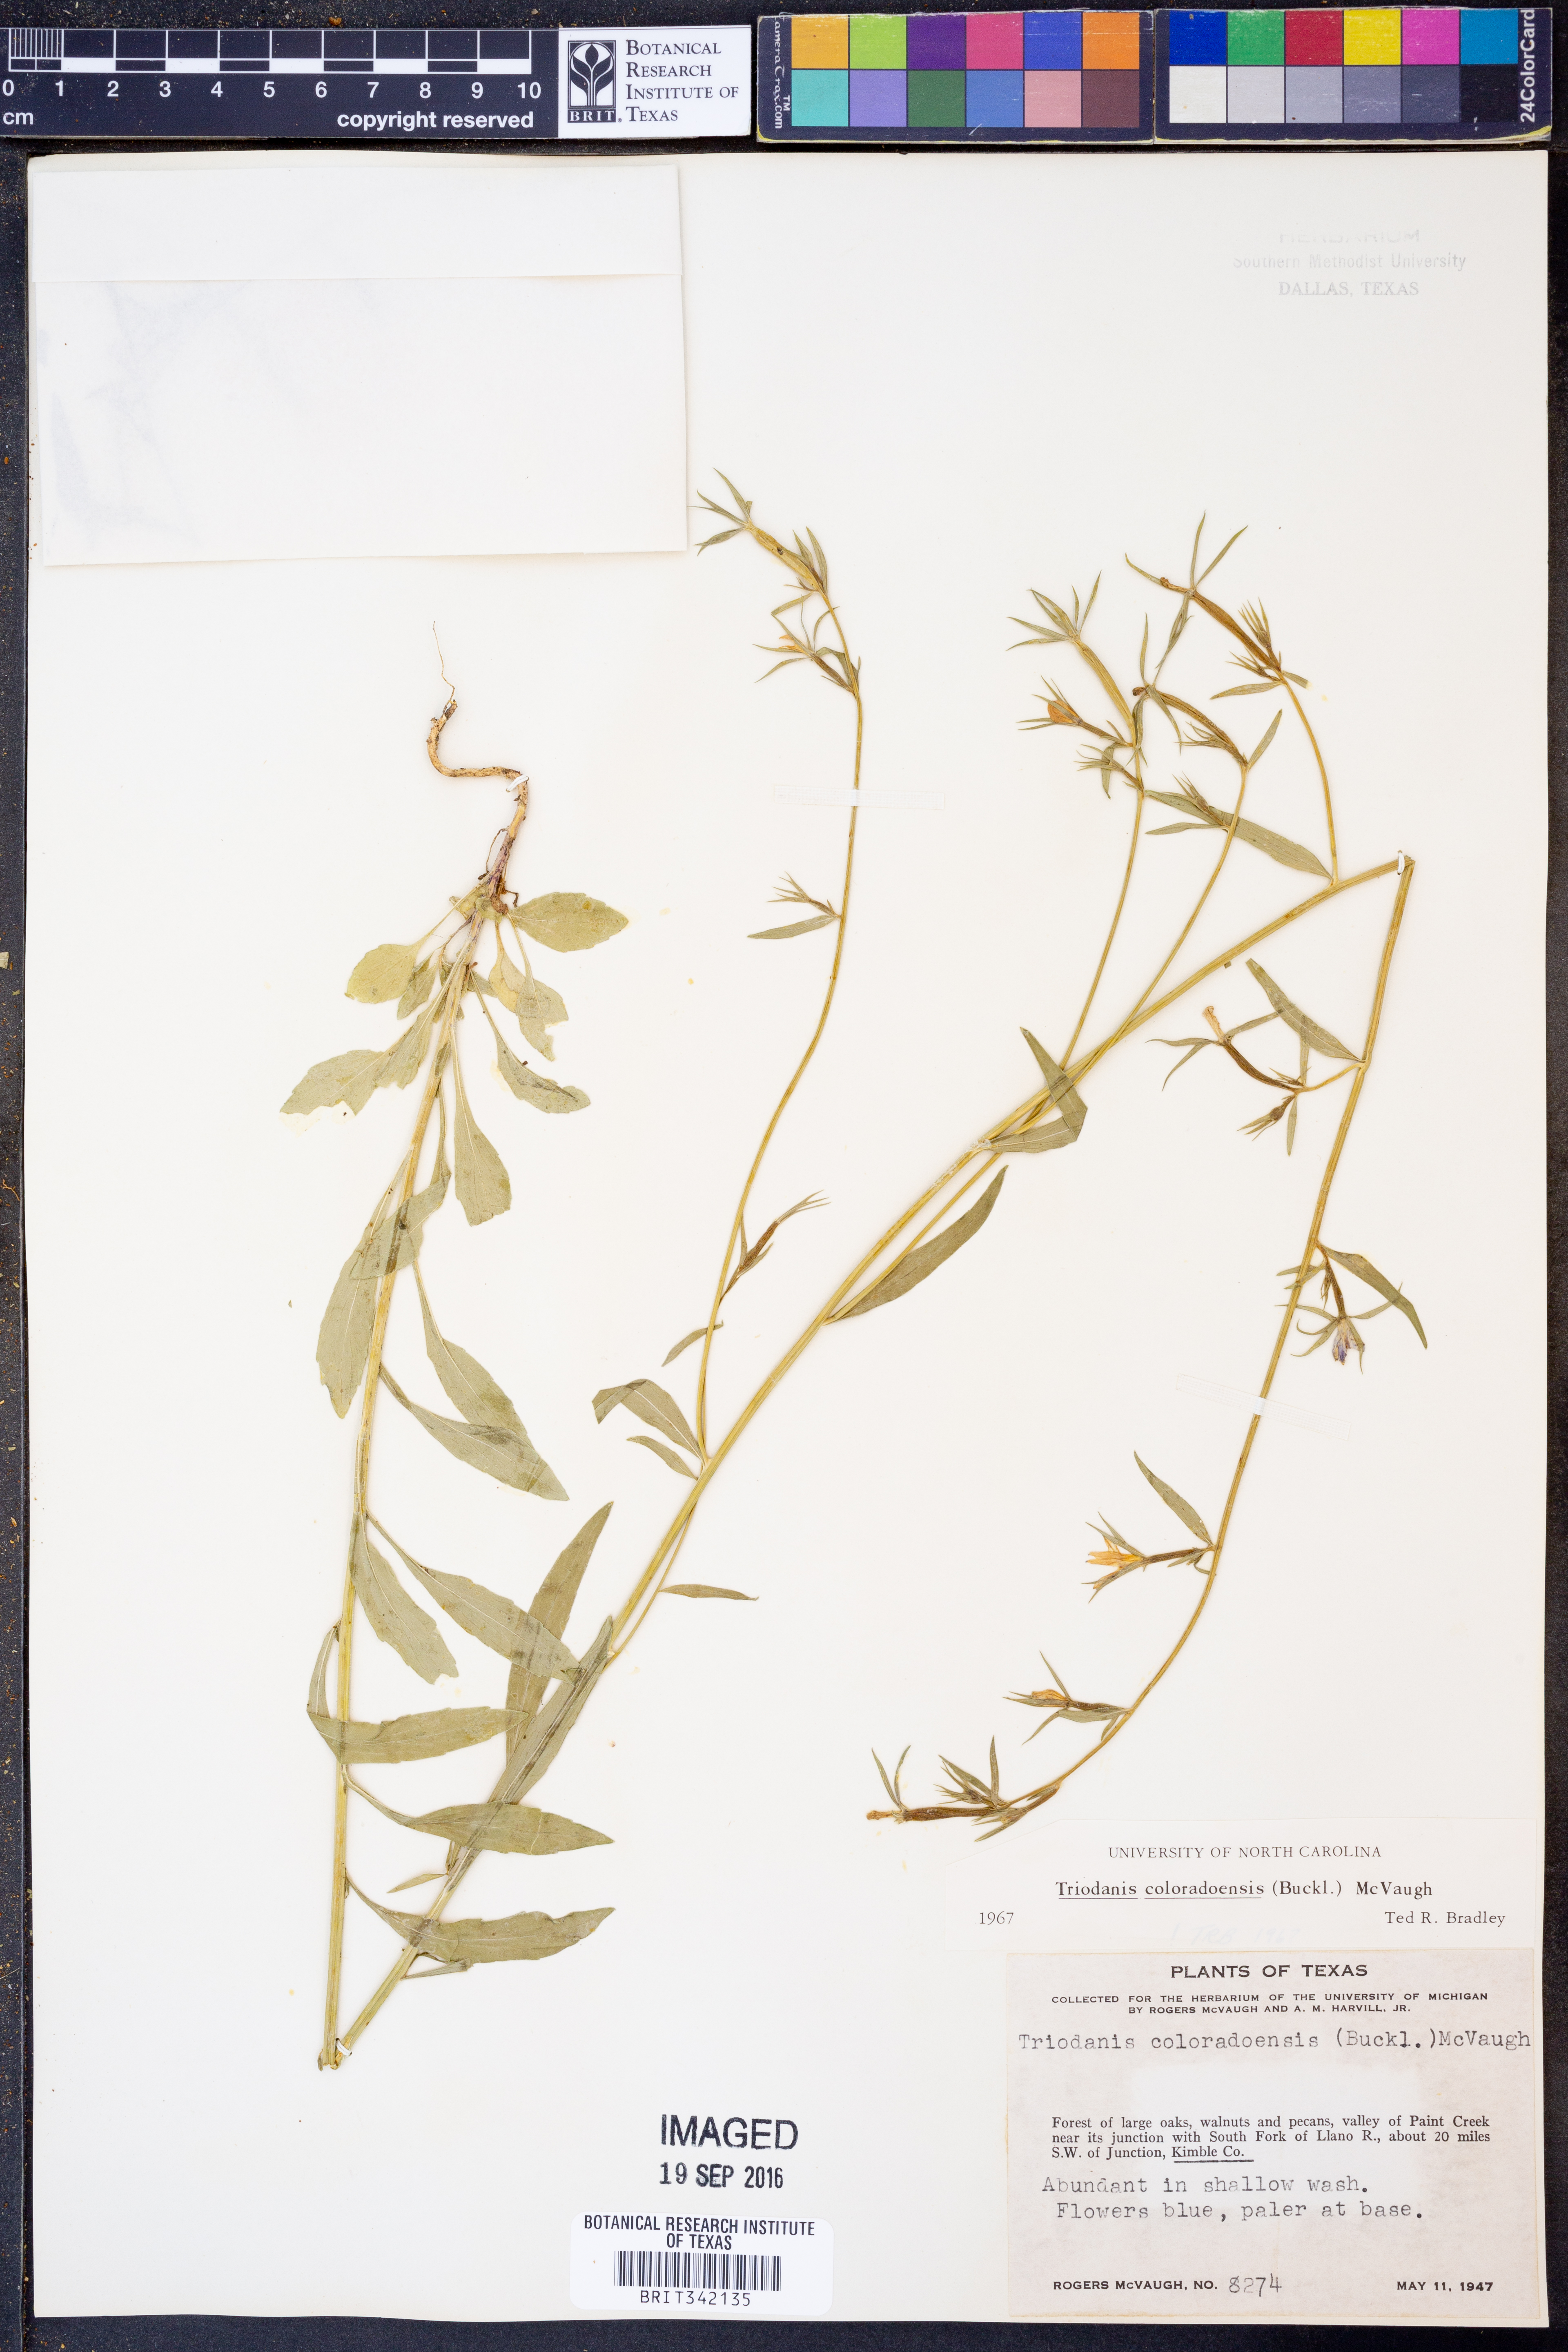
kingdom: Plantae
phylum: Tracheophyta
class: Magnoliopsida
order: Asterales
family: Campanulaceae
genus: Triodanis
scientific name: Triodanis coloradoensis
